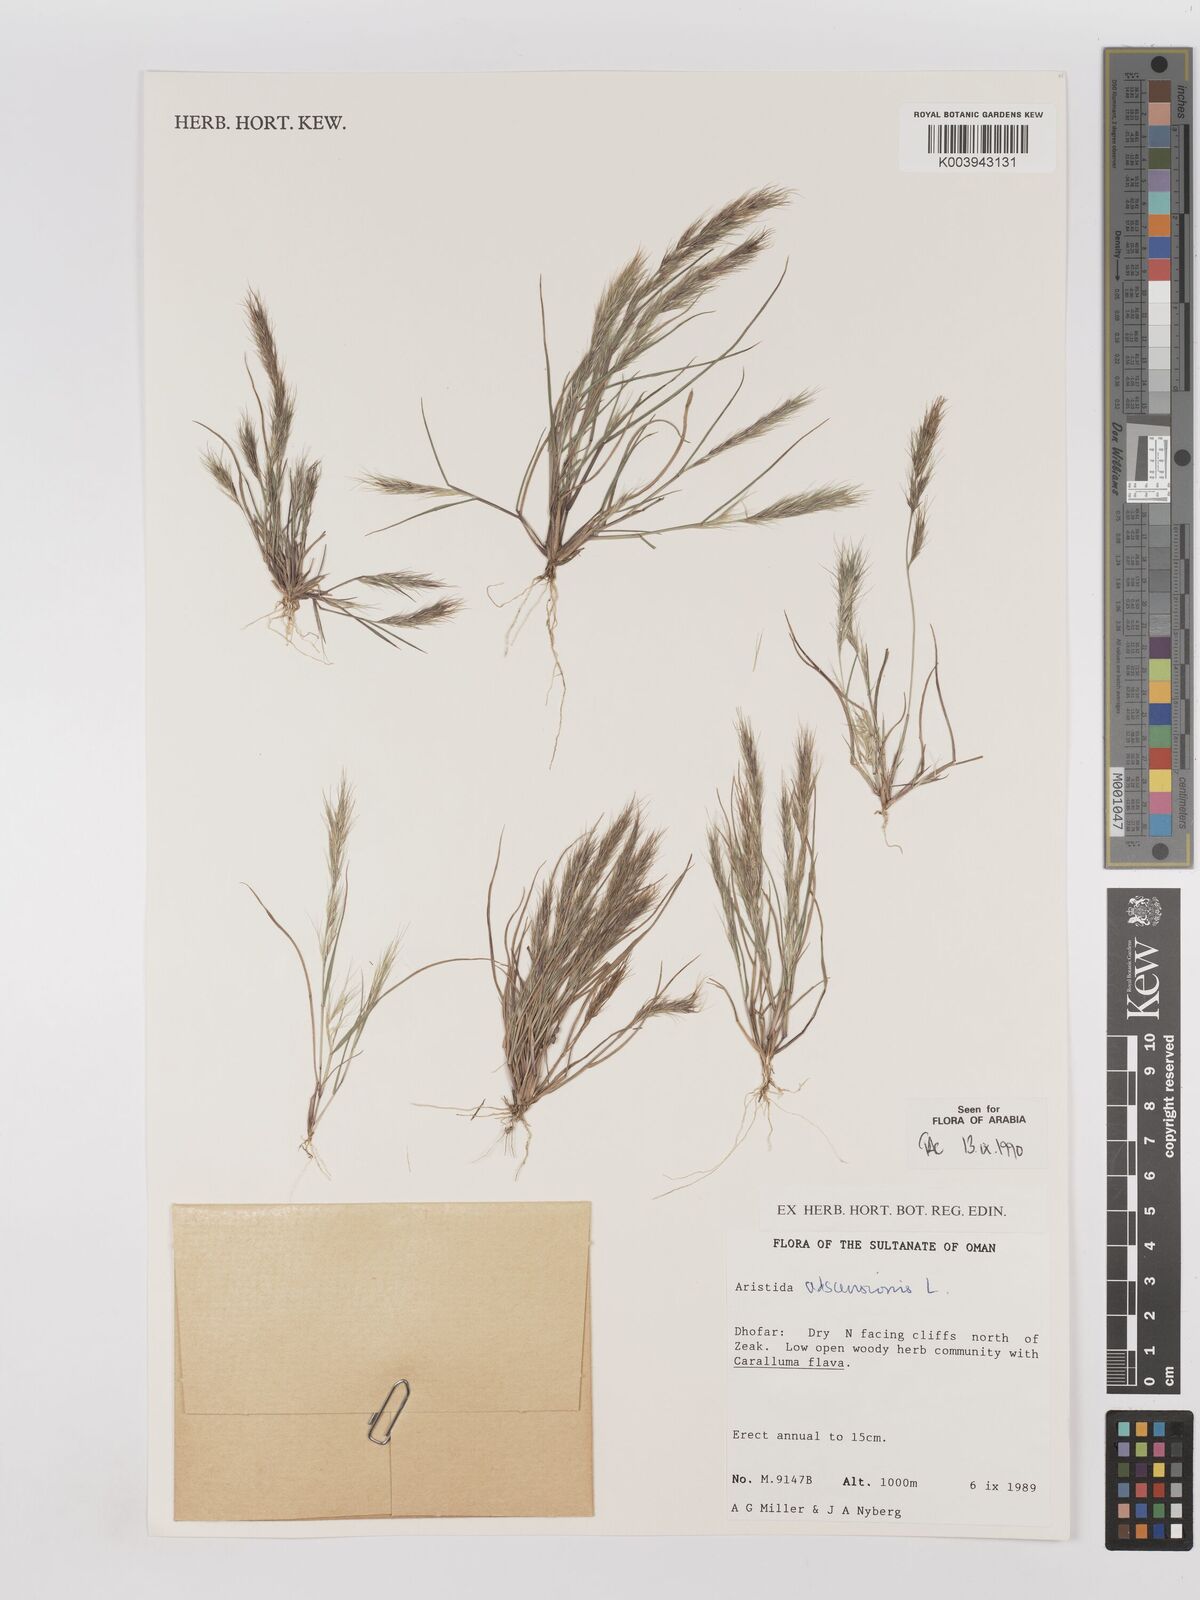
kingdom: Plantae
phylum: Tracheophyta
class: Liliopsida
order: Poales
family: Poaceae
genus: Aristida
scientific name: Aristida adscensionis
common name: Sixweeks threeawn
